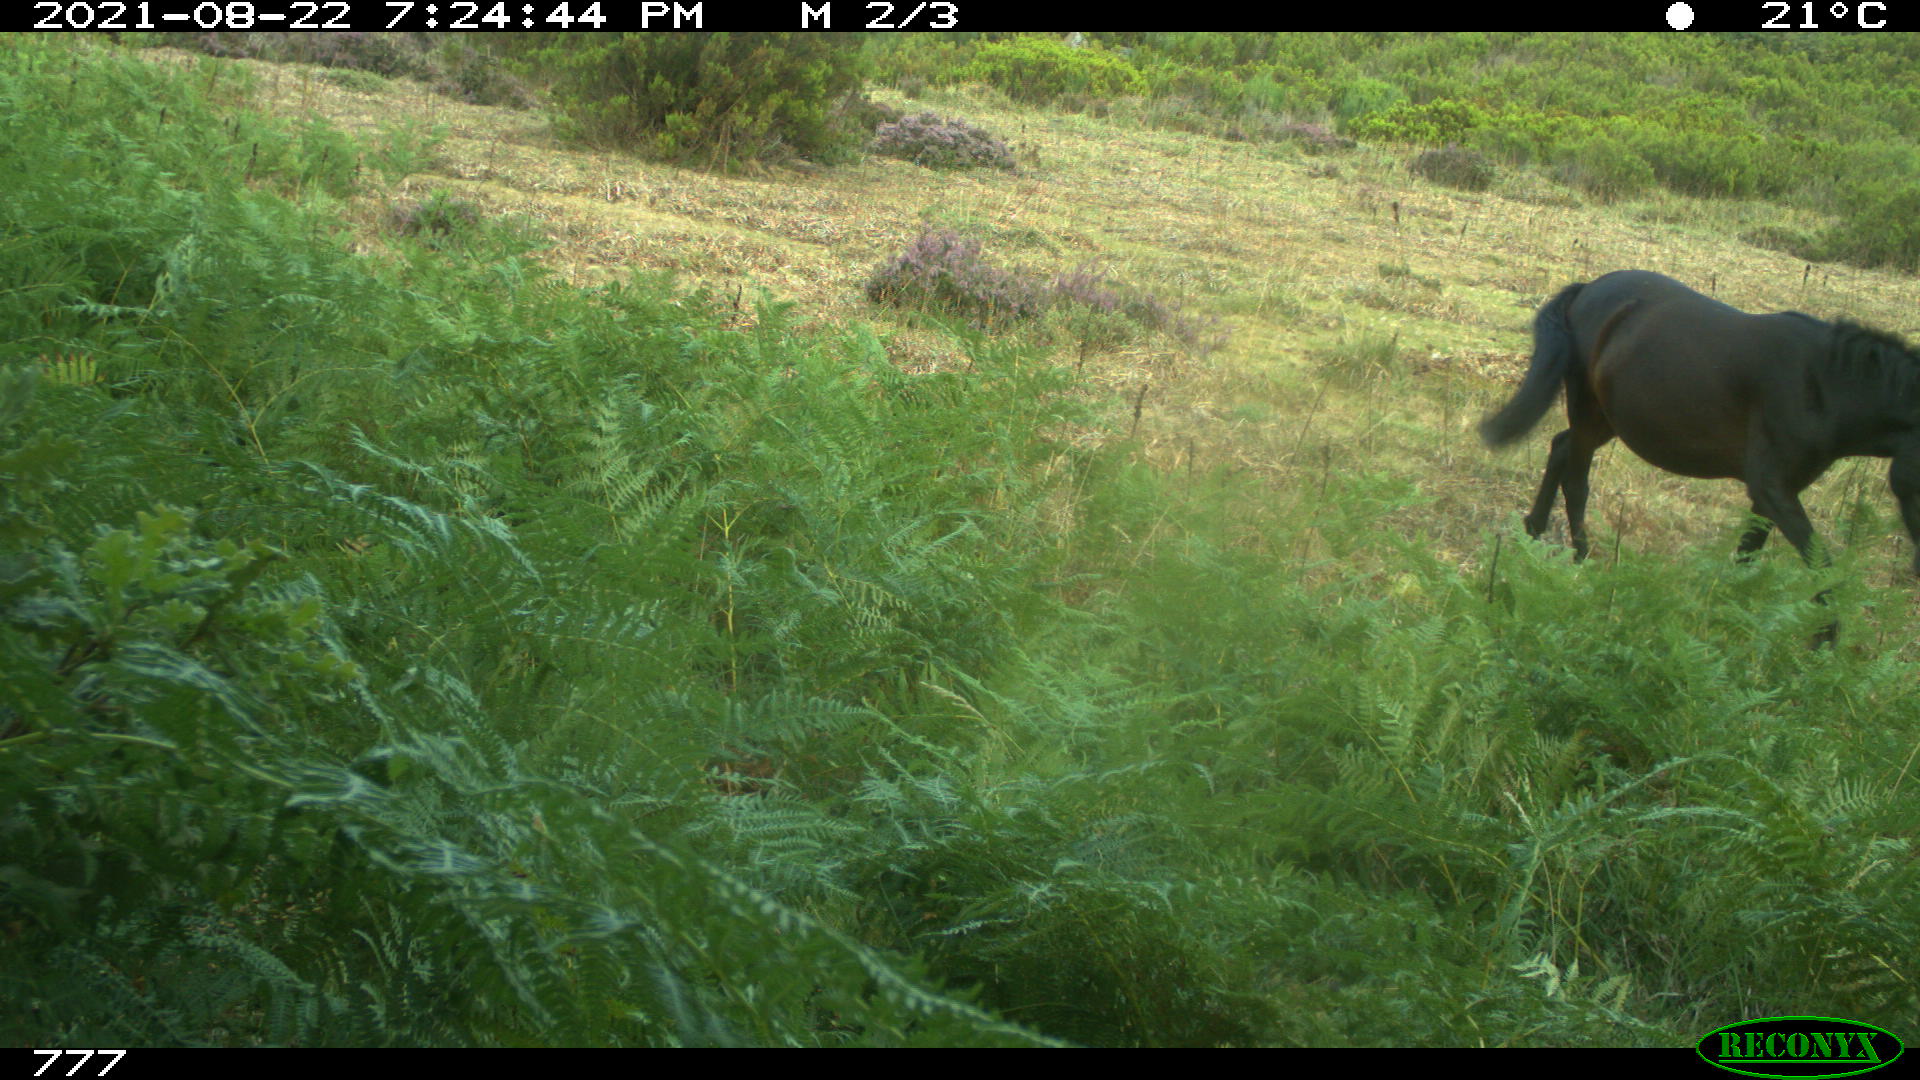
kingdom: Animalia
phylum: Chordata
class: Mammalia
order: Perissodactyla
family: Equidae
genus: Equus
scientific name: Equus caballus
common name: Horse
